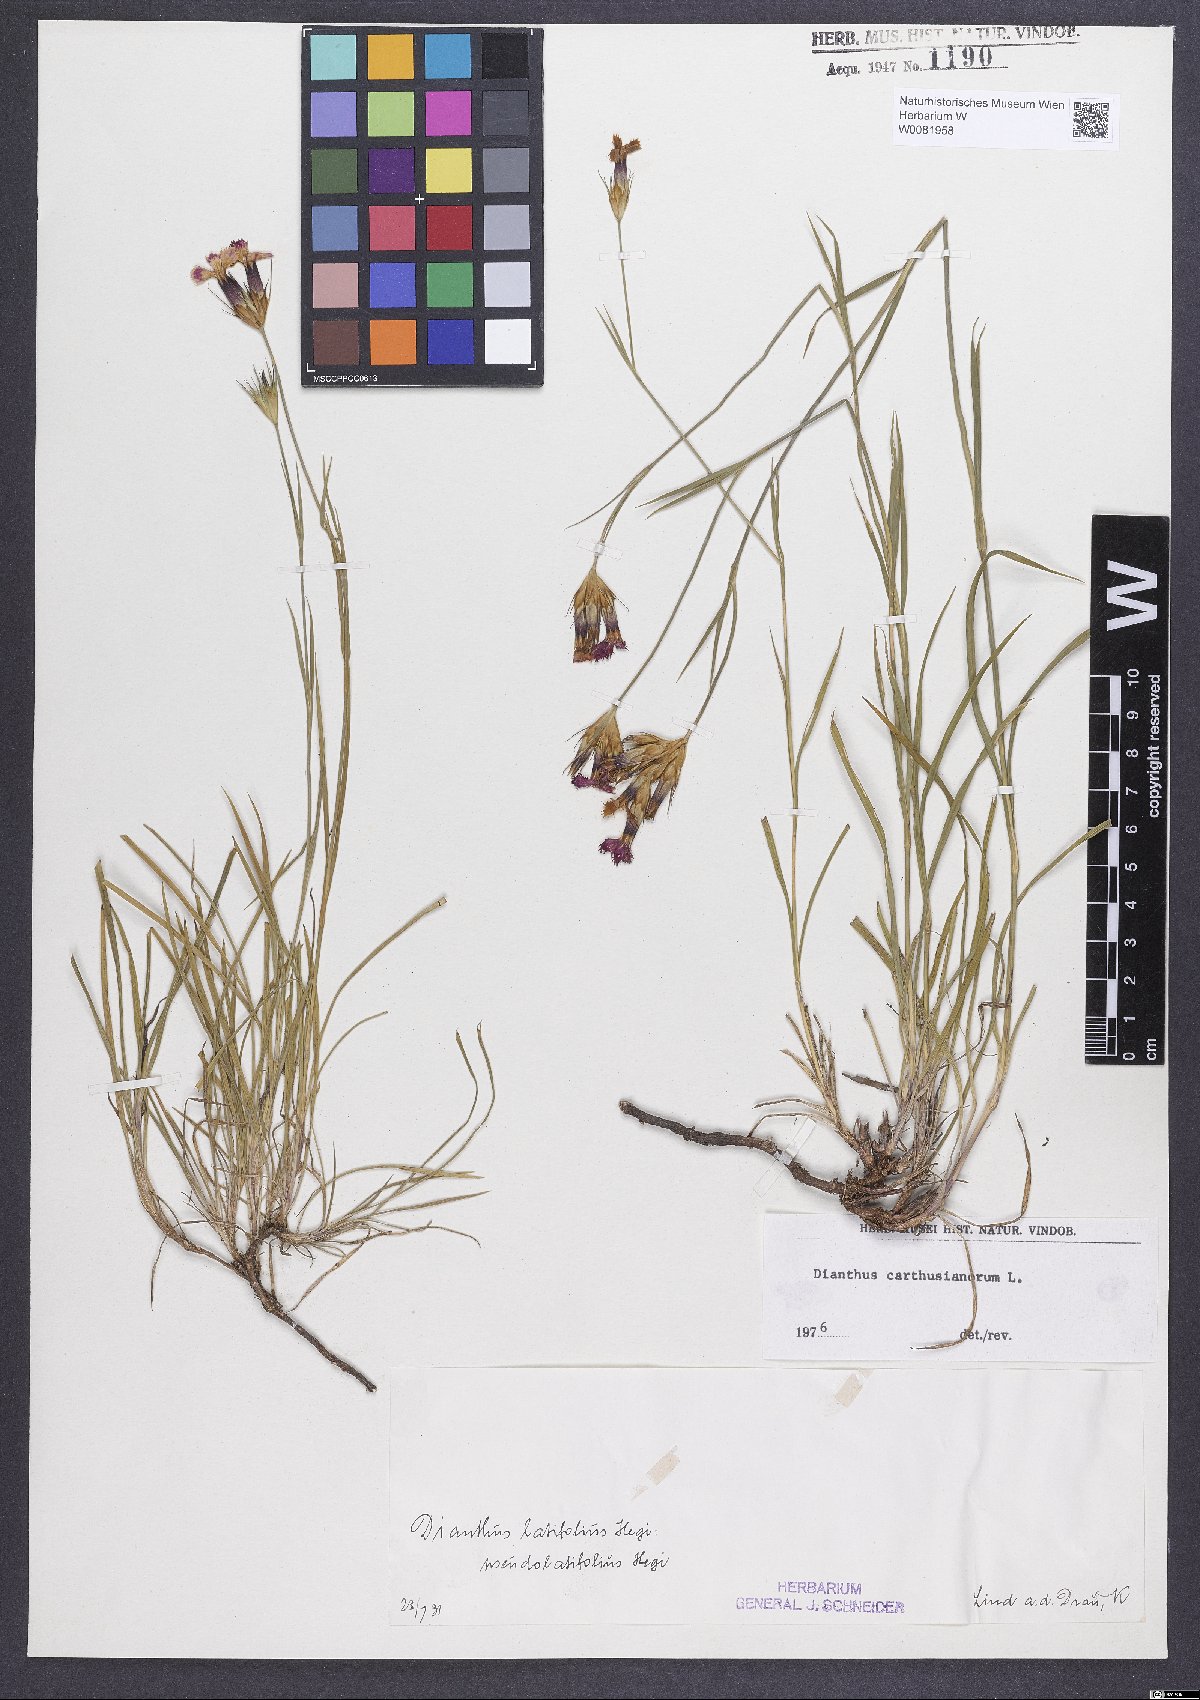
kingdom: Plantae
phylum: Tracheophyta
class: Magnoliopsida
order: Caryophyllales
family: Caryophyllaceae
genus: Dianthus
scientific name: Dianthus carthusianorum
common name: Carthusian pink
